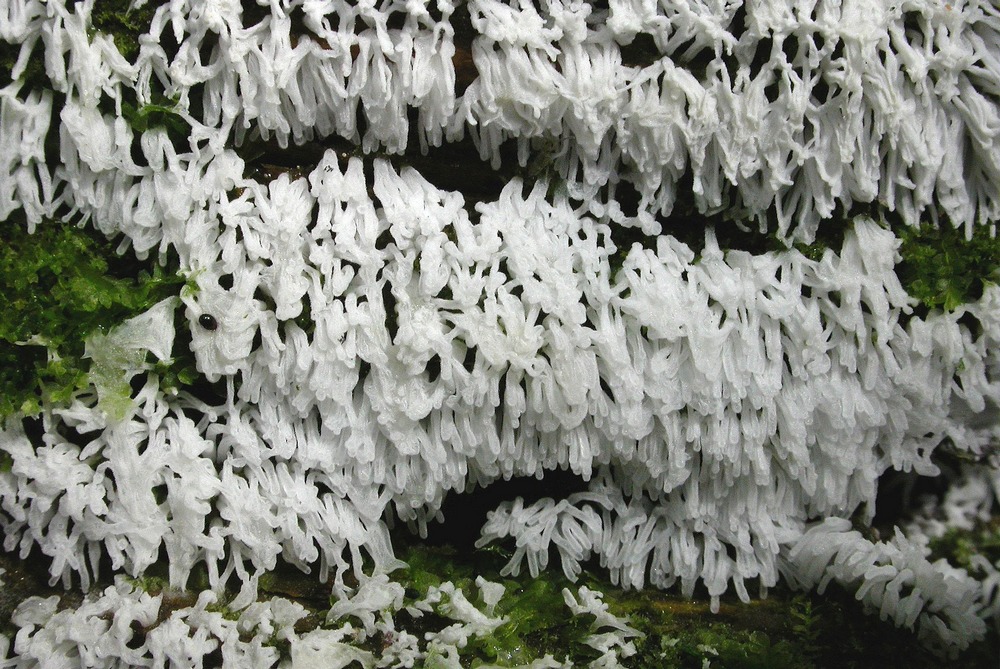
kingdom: Protozoa
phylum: Mycetozoa
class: Protosteliomycetes
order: Ceratiomyxales
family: Ceratiomyxaceae
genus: Ceratiomyxa
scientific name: Ceratiomyxa fruticulosa
